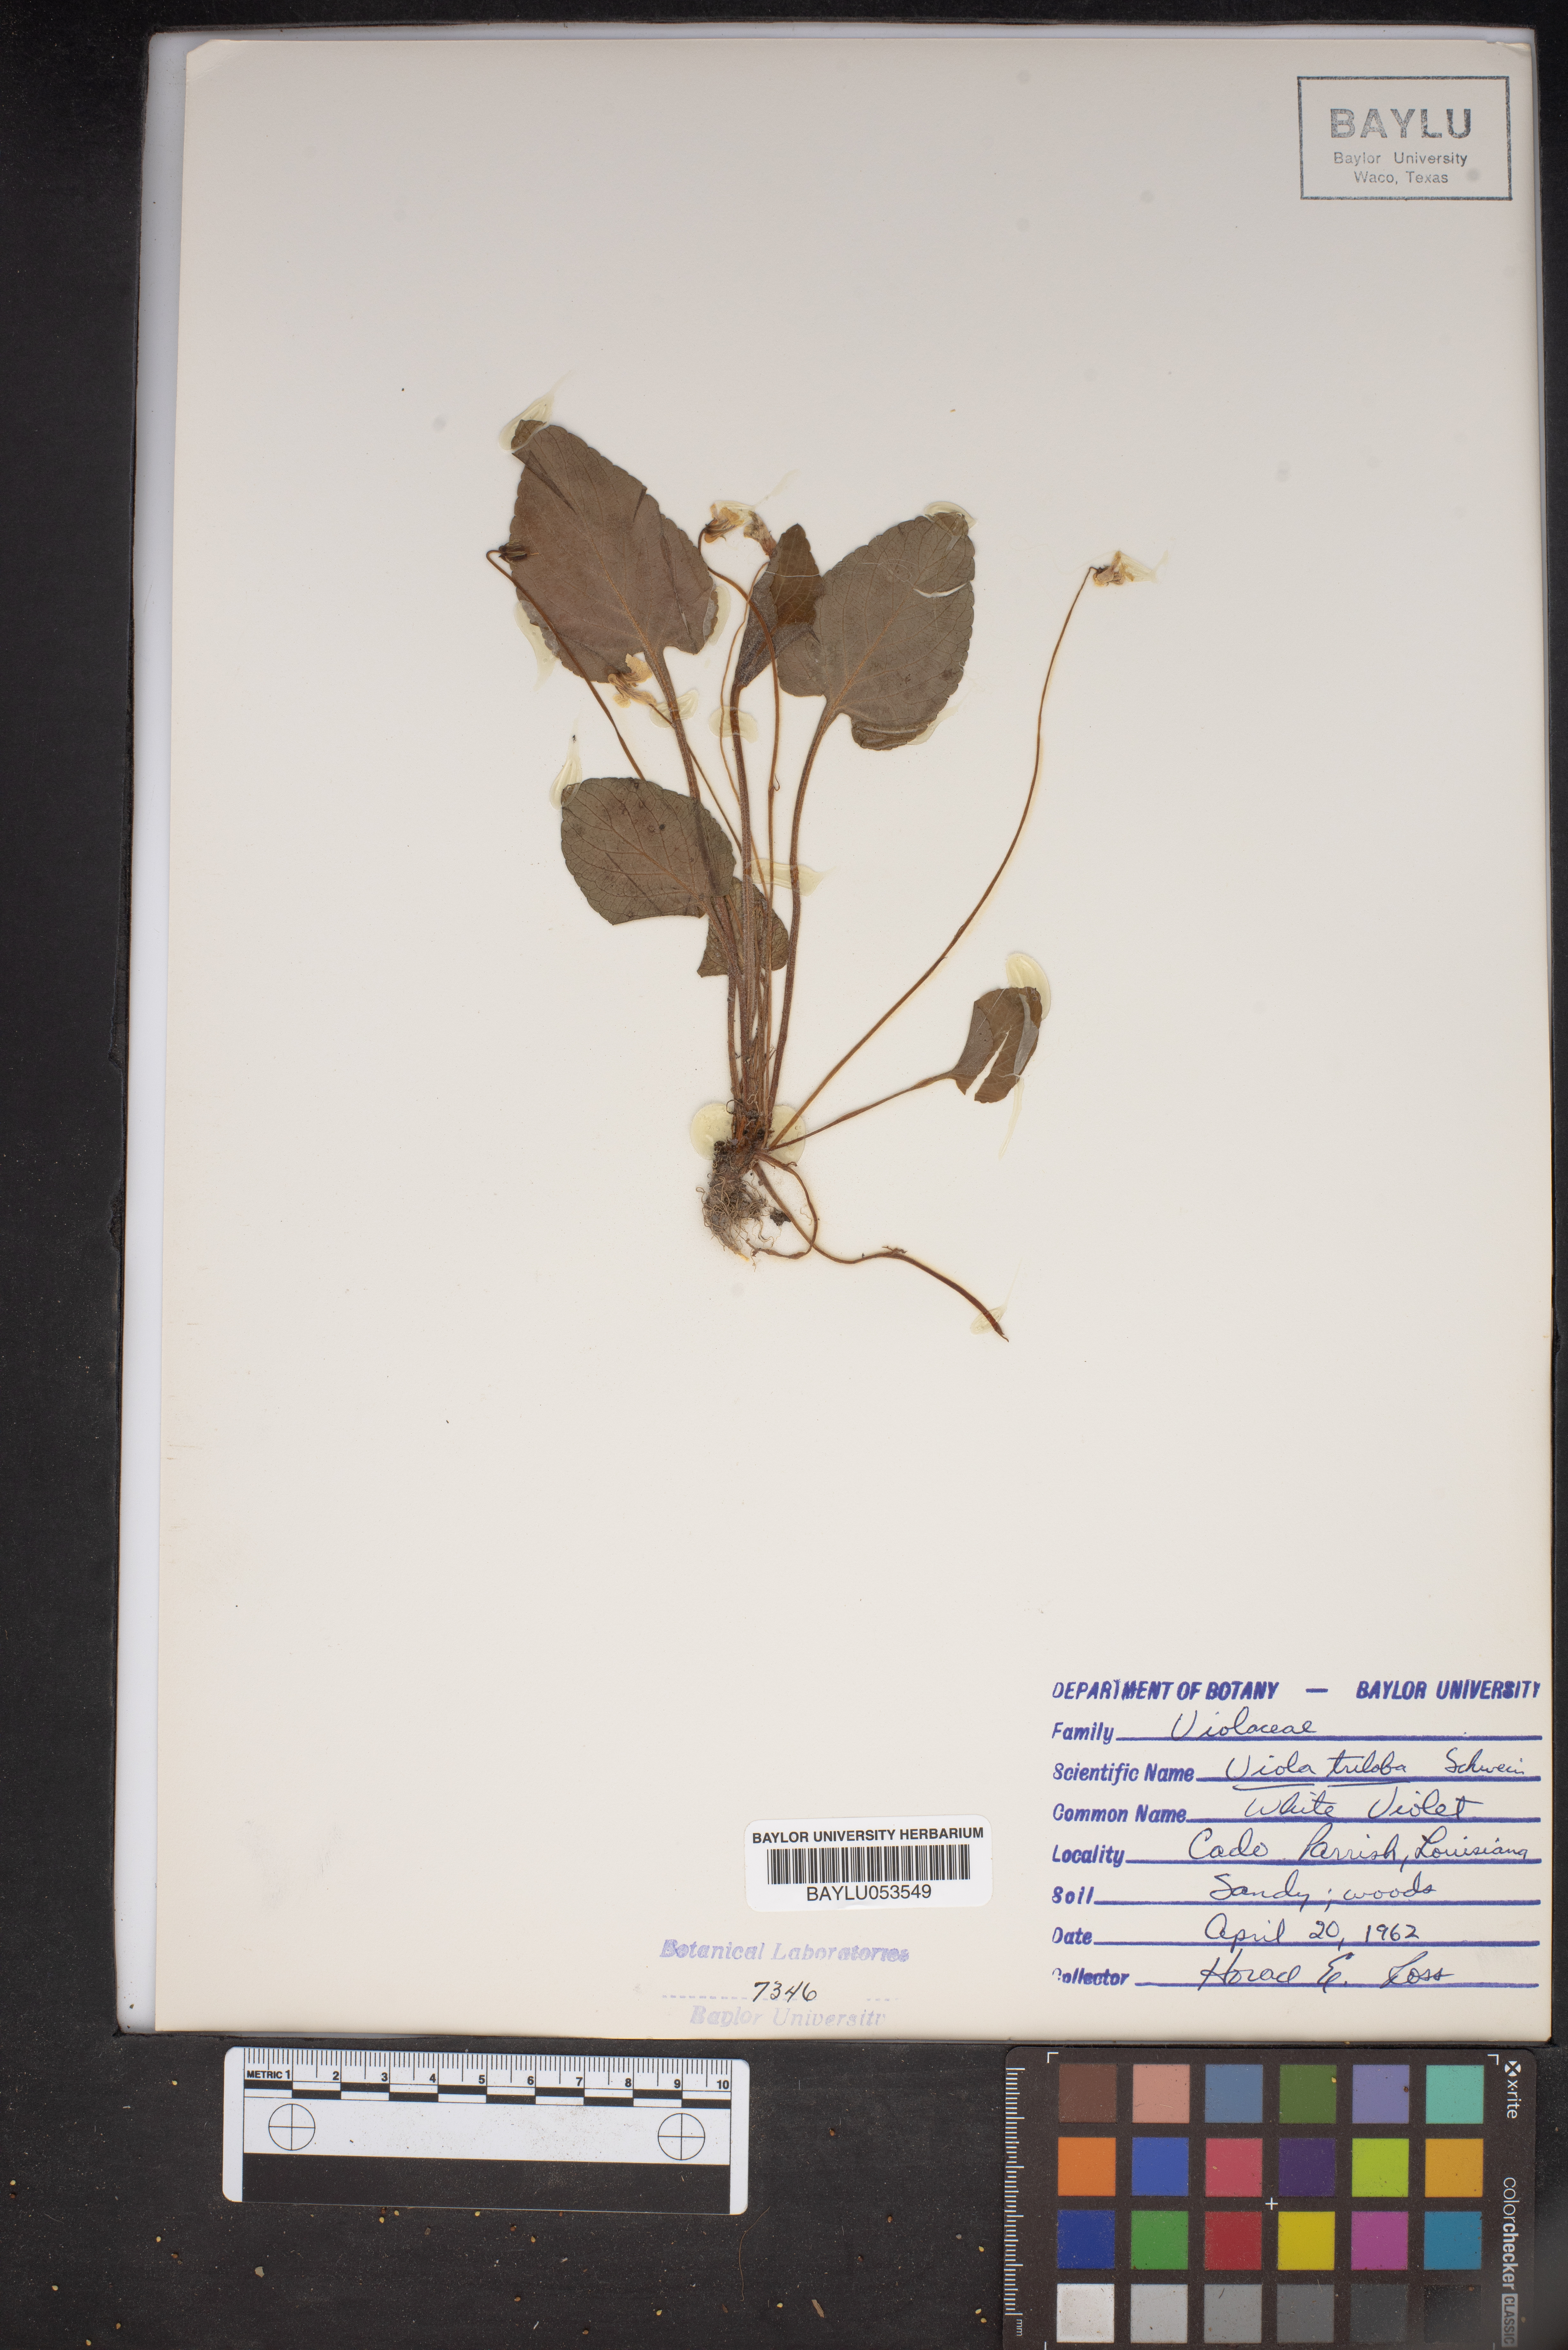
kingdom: Plantae
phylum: Tracheophyta
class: Magnoliopsida
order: Malpighiales
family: Violaceae
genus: Viola
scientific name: Viola palmata
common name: Early blue violet
